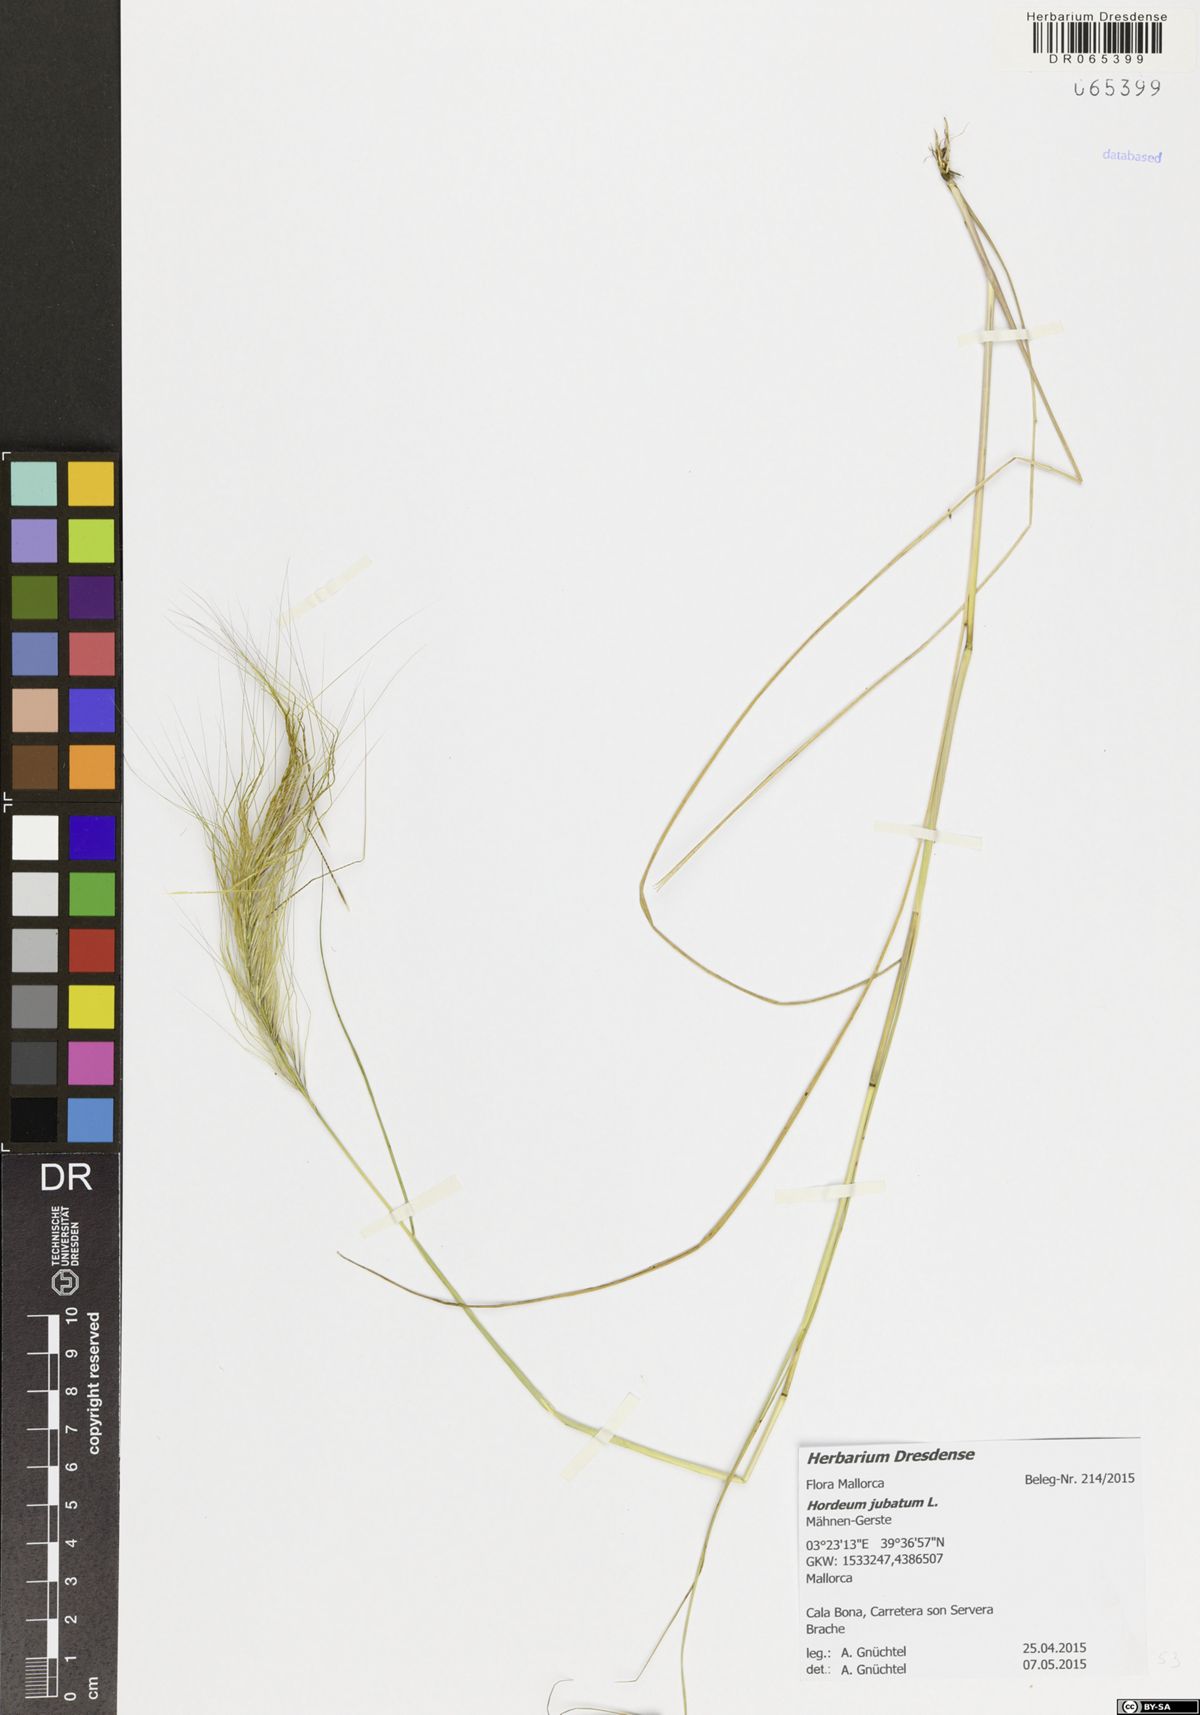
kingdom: Plantae
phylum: Tracheophyta
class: Liliopsida
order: Poales
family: Poaceae
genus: Hordeum
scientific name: Hordeum jubatum
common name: Foxtail barley
